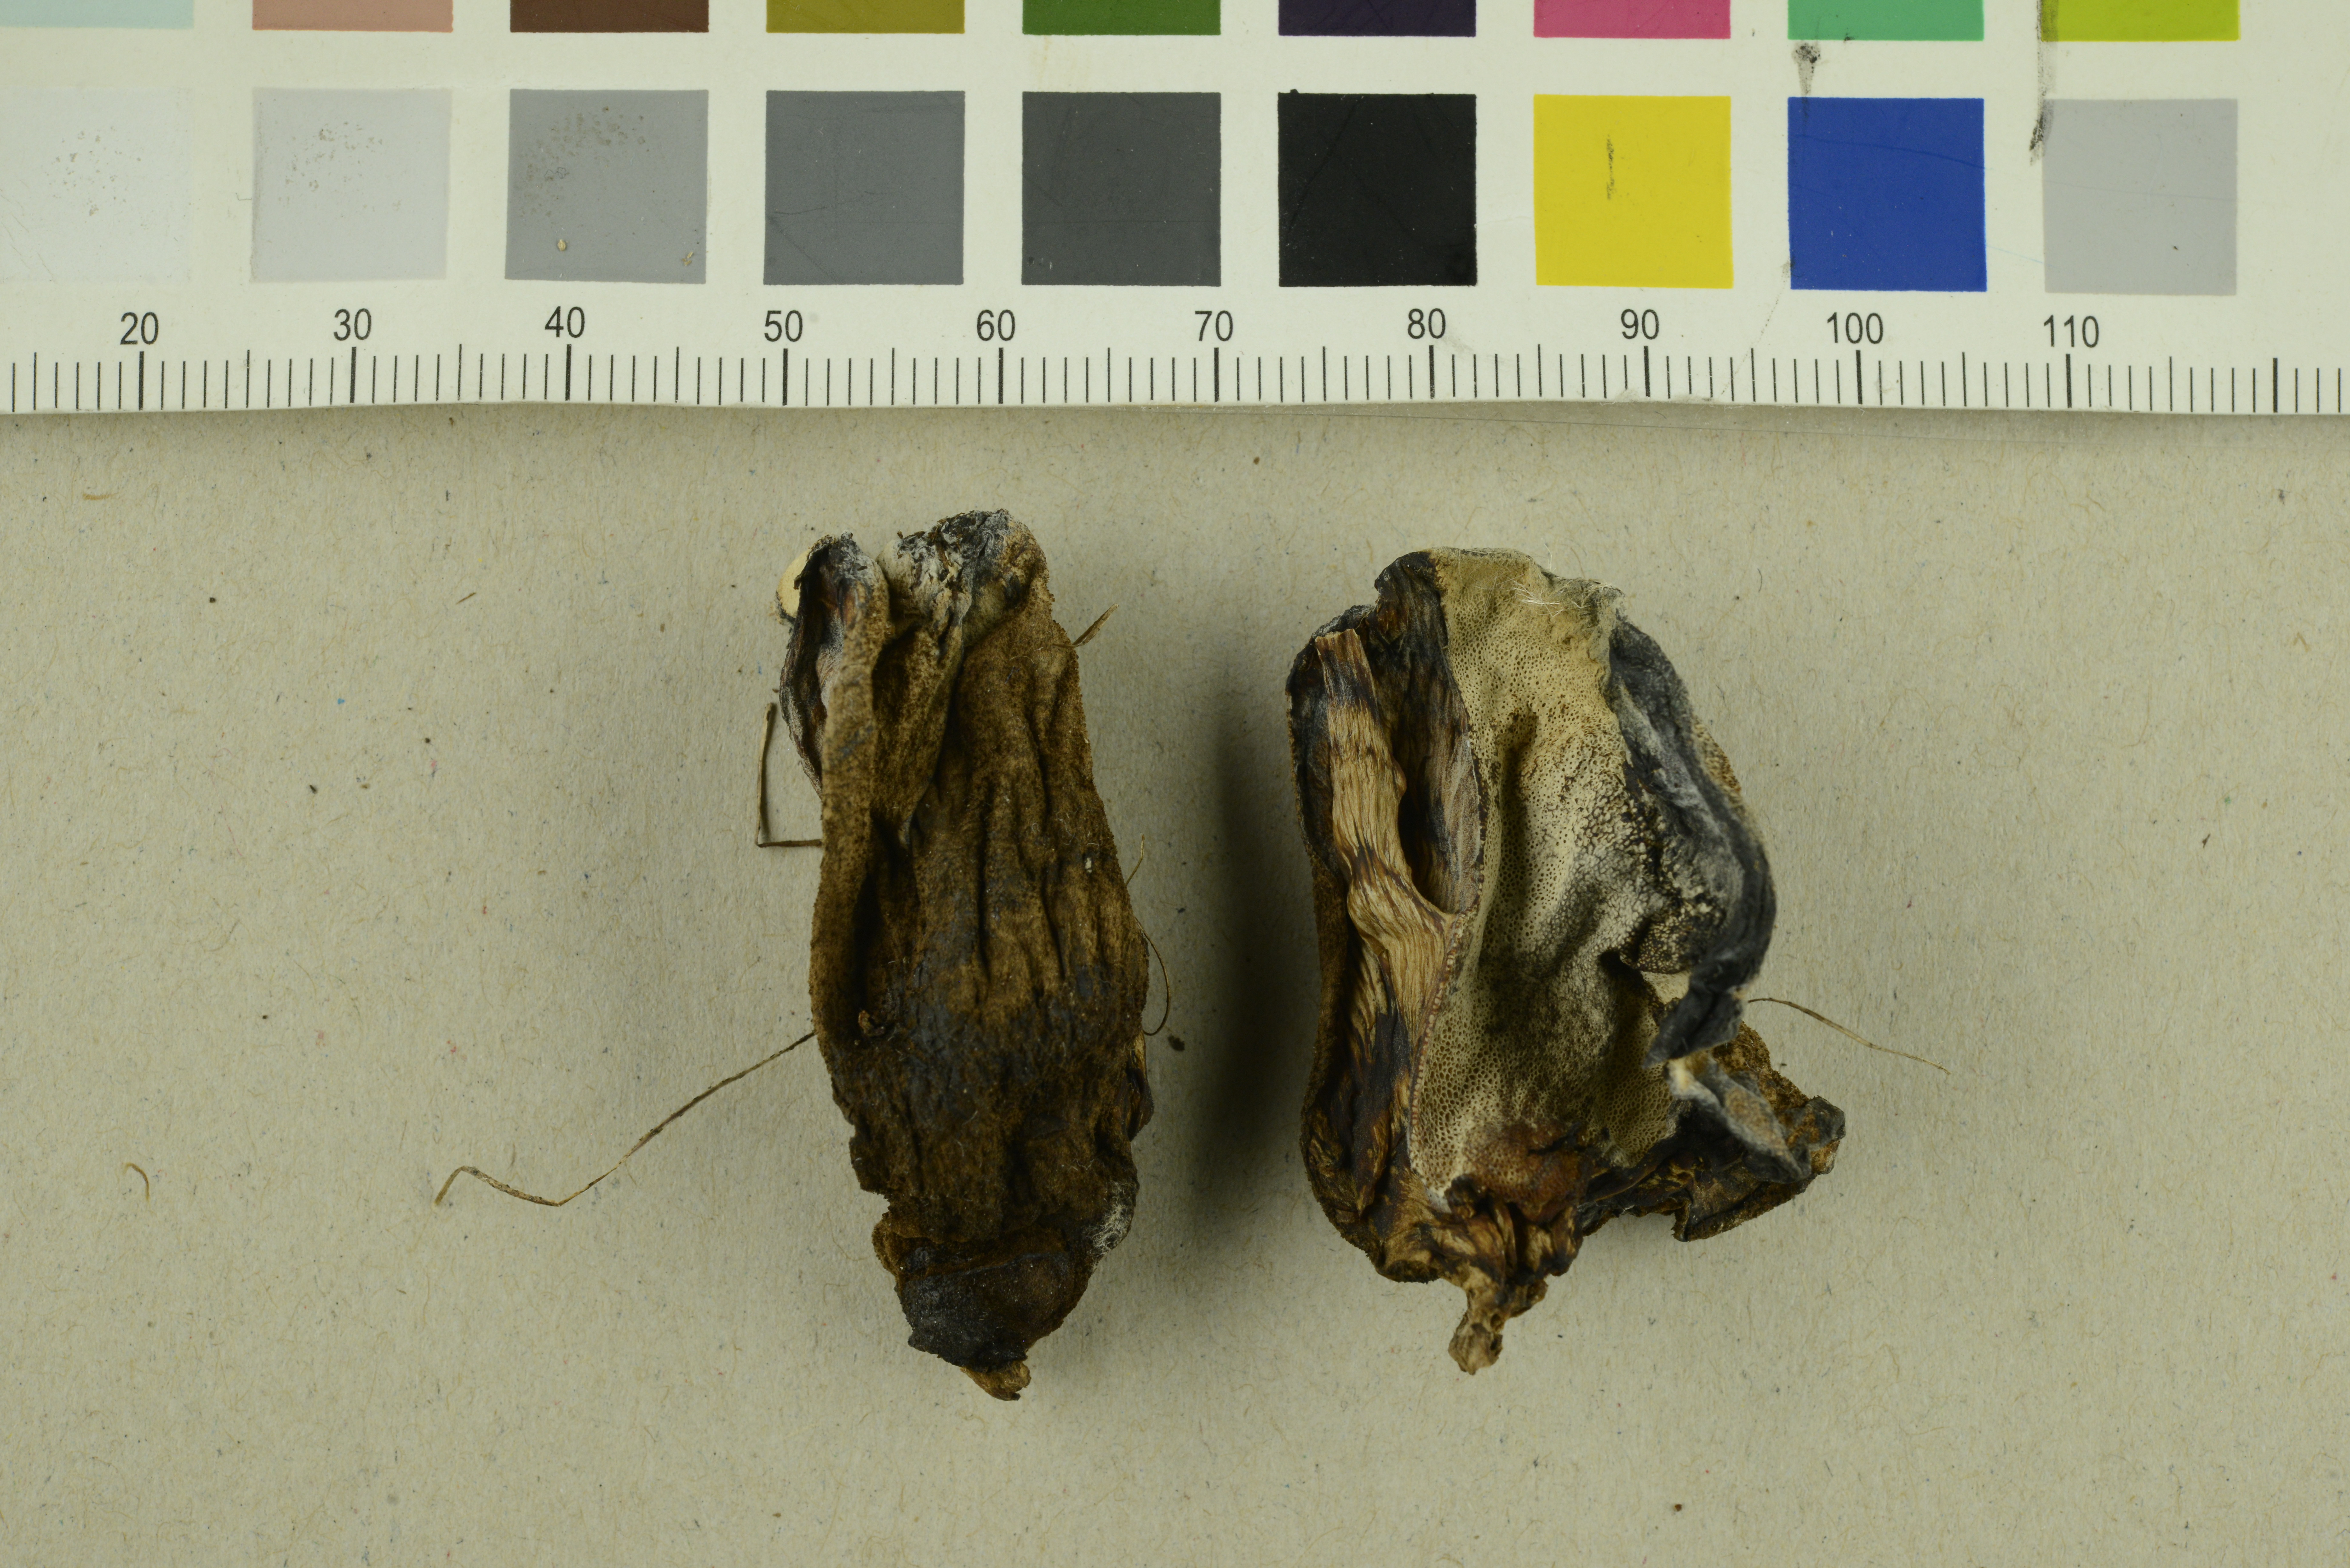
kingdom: Fungi
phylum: Basidiomycota
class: Agaricomycetes
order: Polyporales
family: Podoscyphaceae
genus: Abortiporus
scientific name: Abortiporus biennis
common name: Blushing rosette
